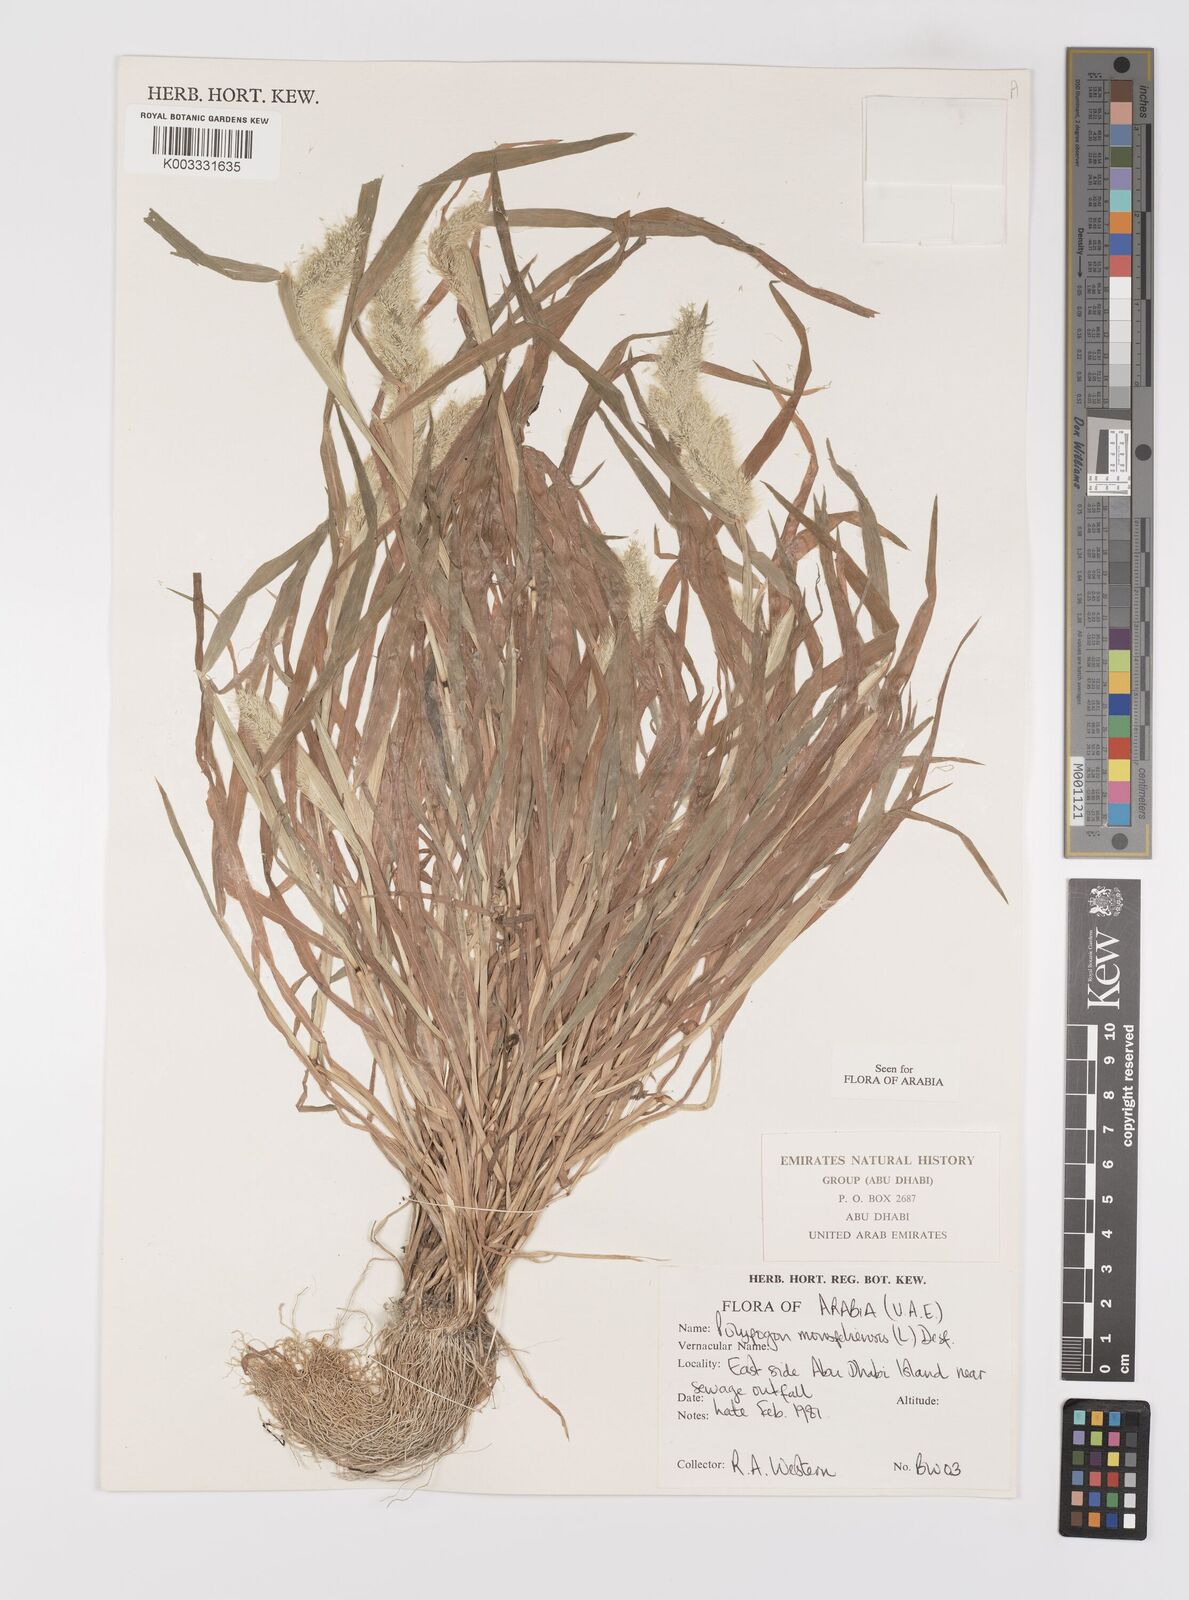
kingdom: Plantae
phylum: Tracheophyta
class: Liliopsida
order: Poales
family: Poaceae
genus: Polypogon
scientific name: Polypogon monspeliensis
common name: Annual rabbitsfoot grass
